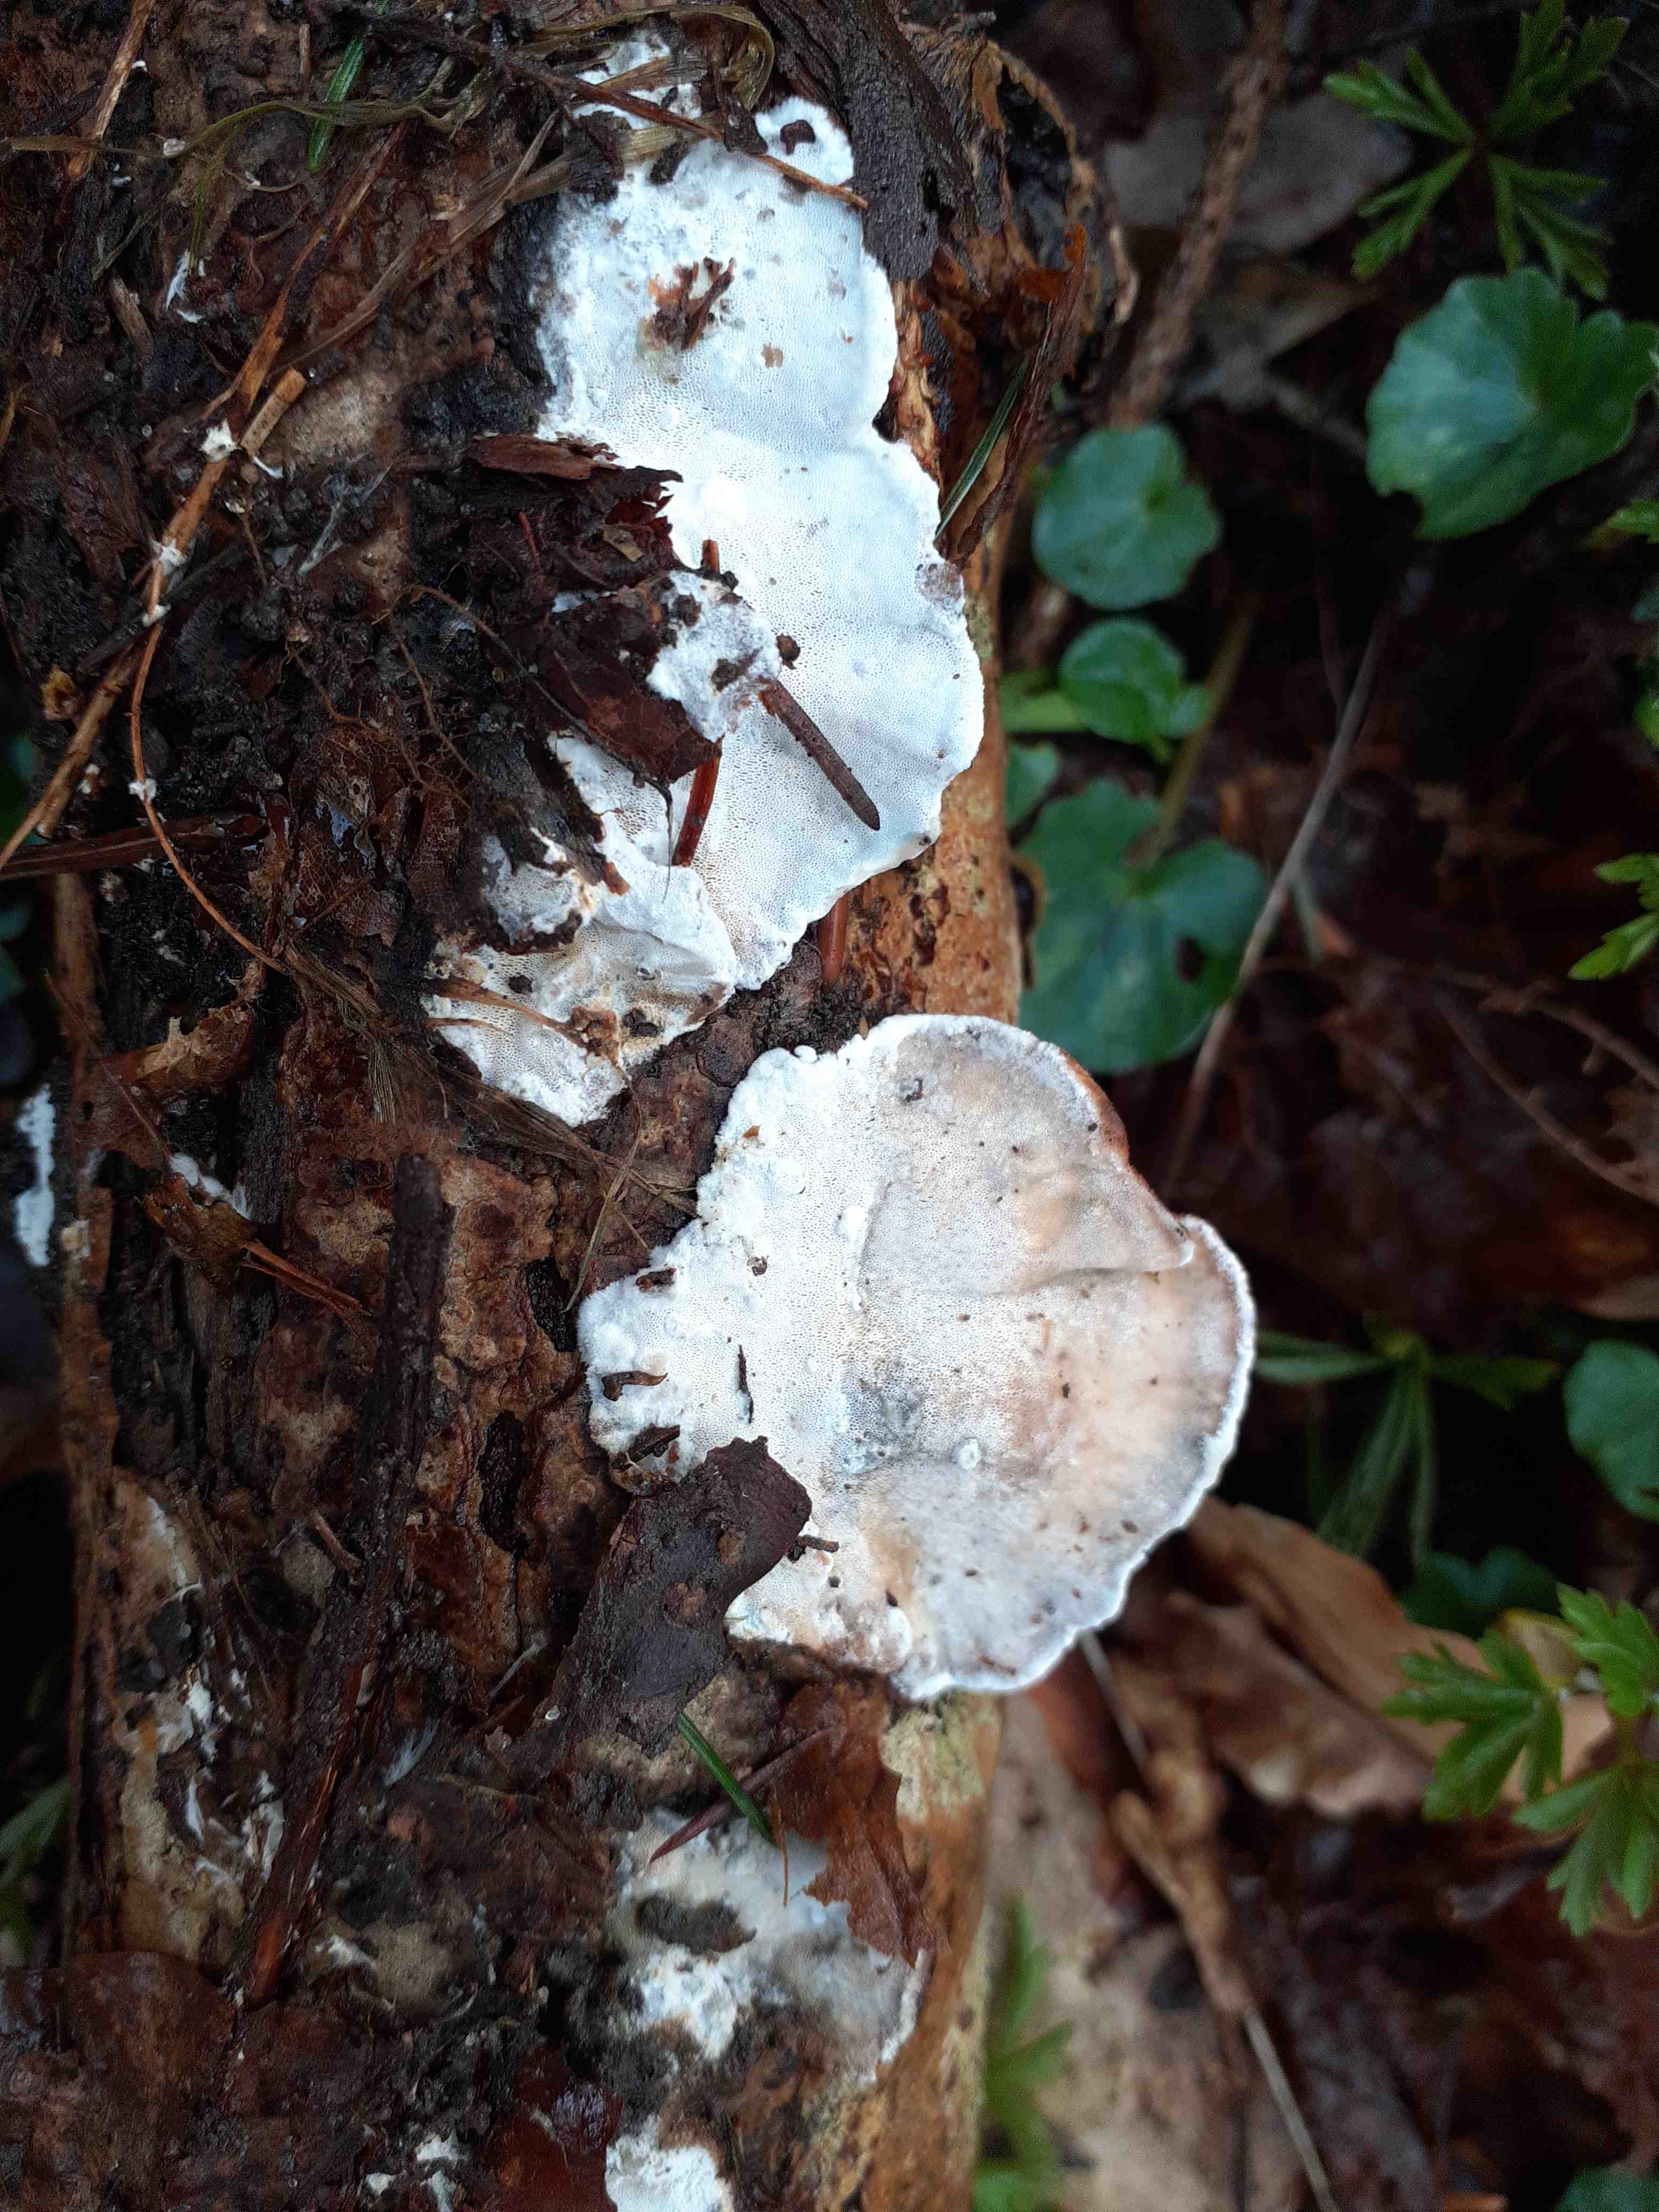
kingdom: Fungi
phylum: Basidiomycota
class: Agaricomycetes
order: Polyporales
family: Incrustoporiaceae
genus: Skeletocutis
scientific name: Skeletocutis nemoralis
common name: stor krystalporesvamp
